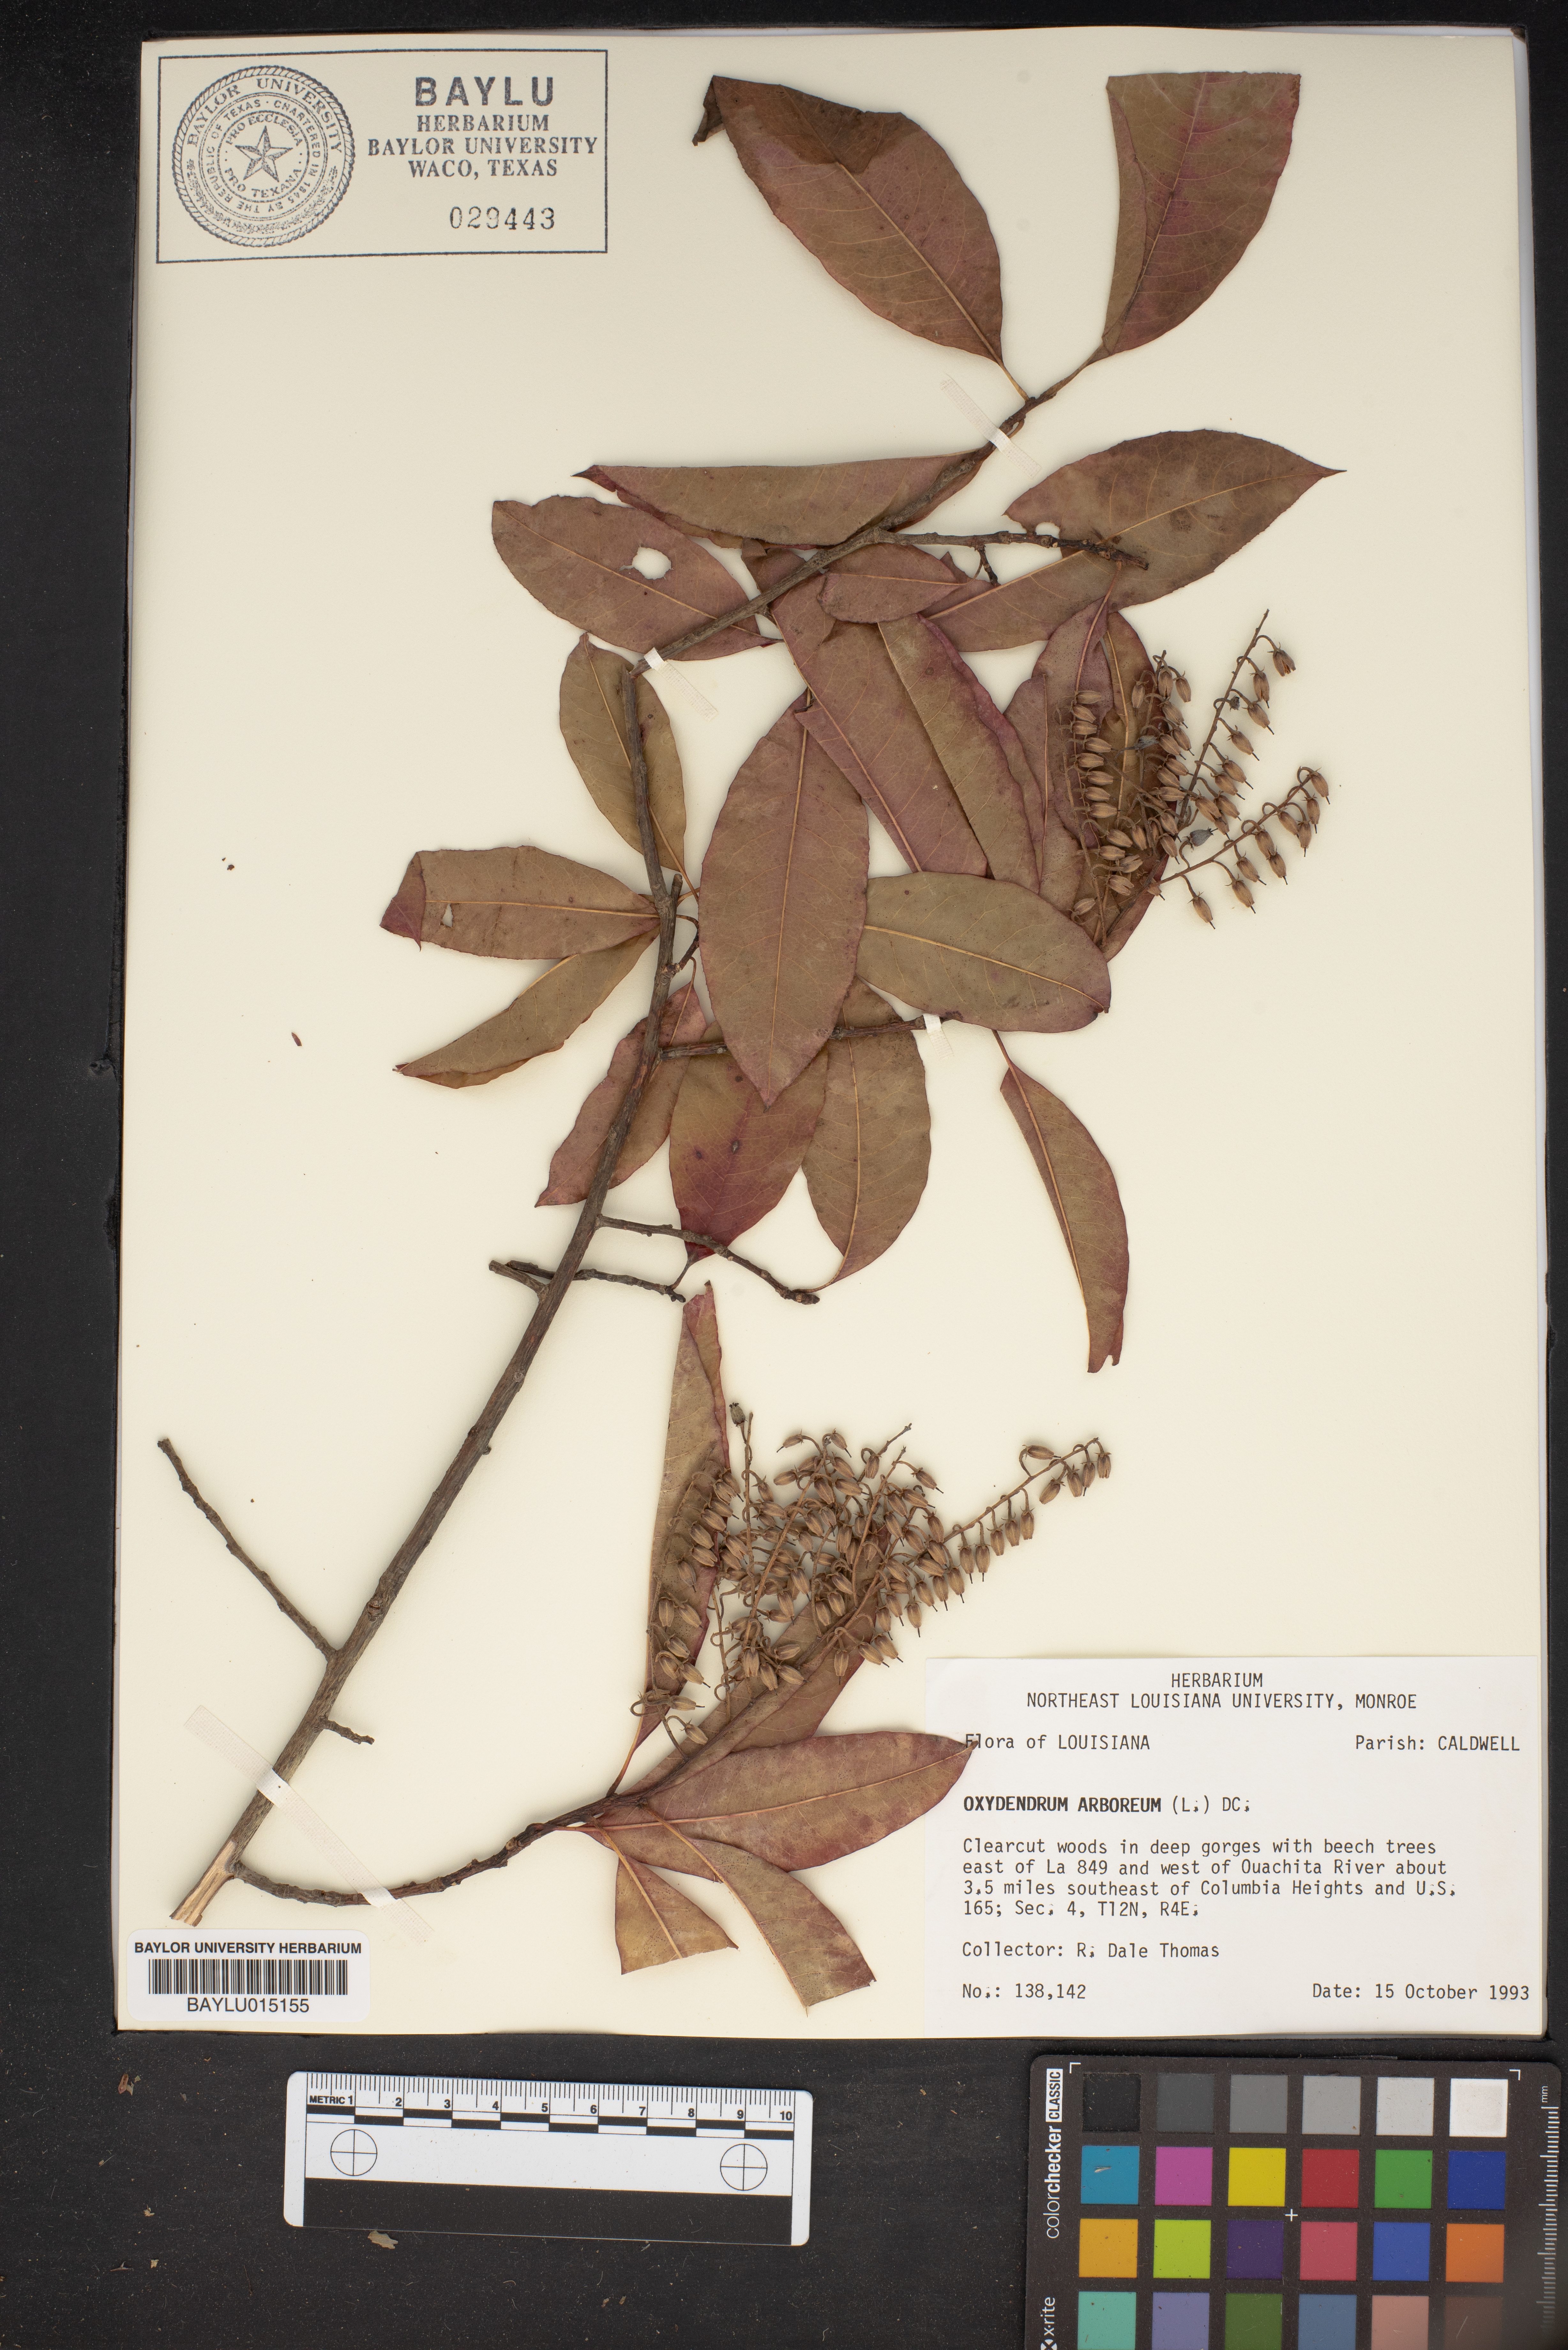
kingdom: Plantae
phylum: Tracheophyta
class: Magnoliopsida
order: Ericales
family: Ericaceae
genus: Oxydendrum
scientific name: Oxydendrum arboreum
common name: Sourwood
